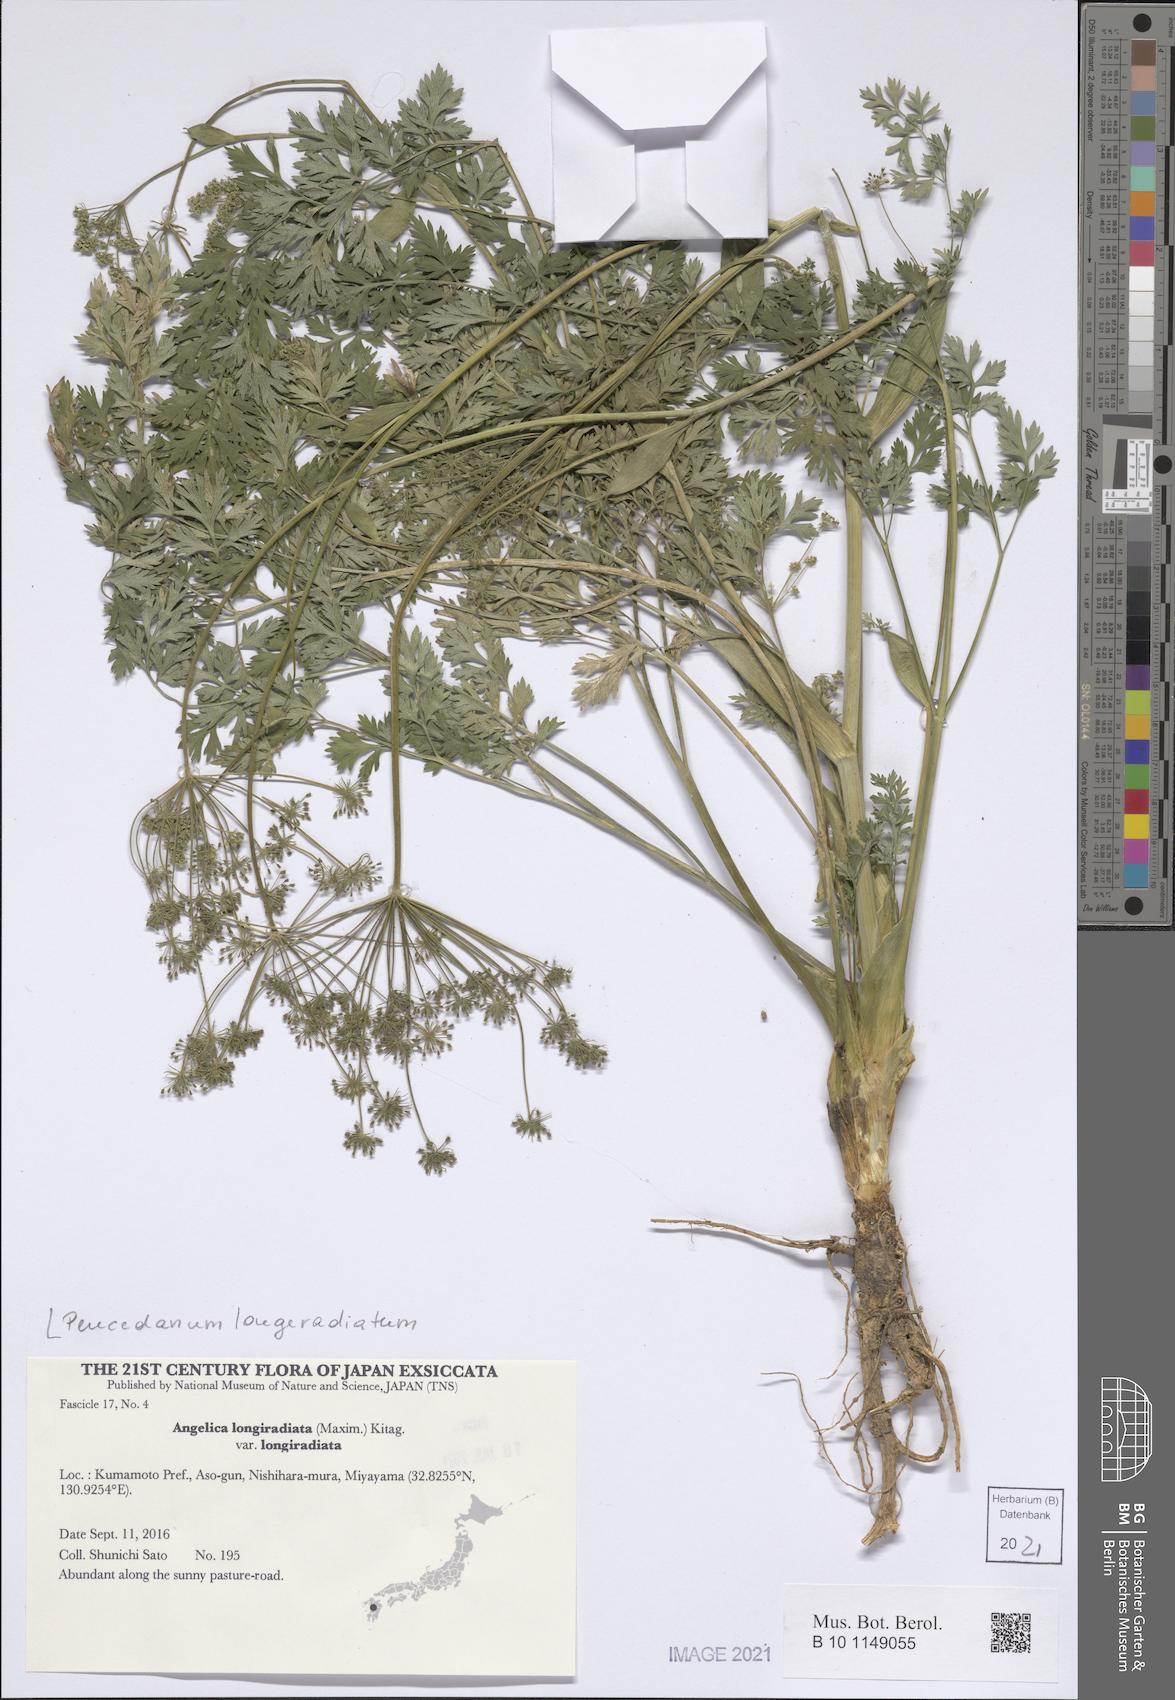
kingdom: Plantae
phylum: Tracheophyta
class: Magnoliopsida
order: Apiales
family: Apiaceae
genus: Angelica
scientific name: Angelica longeradiata
